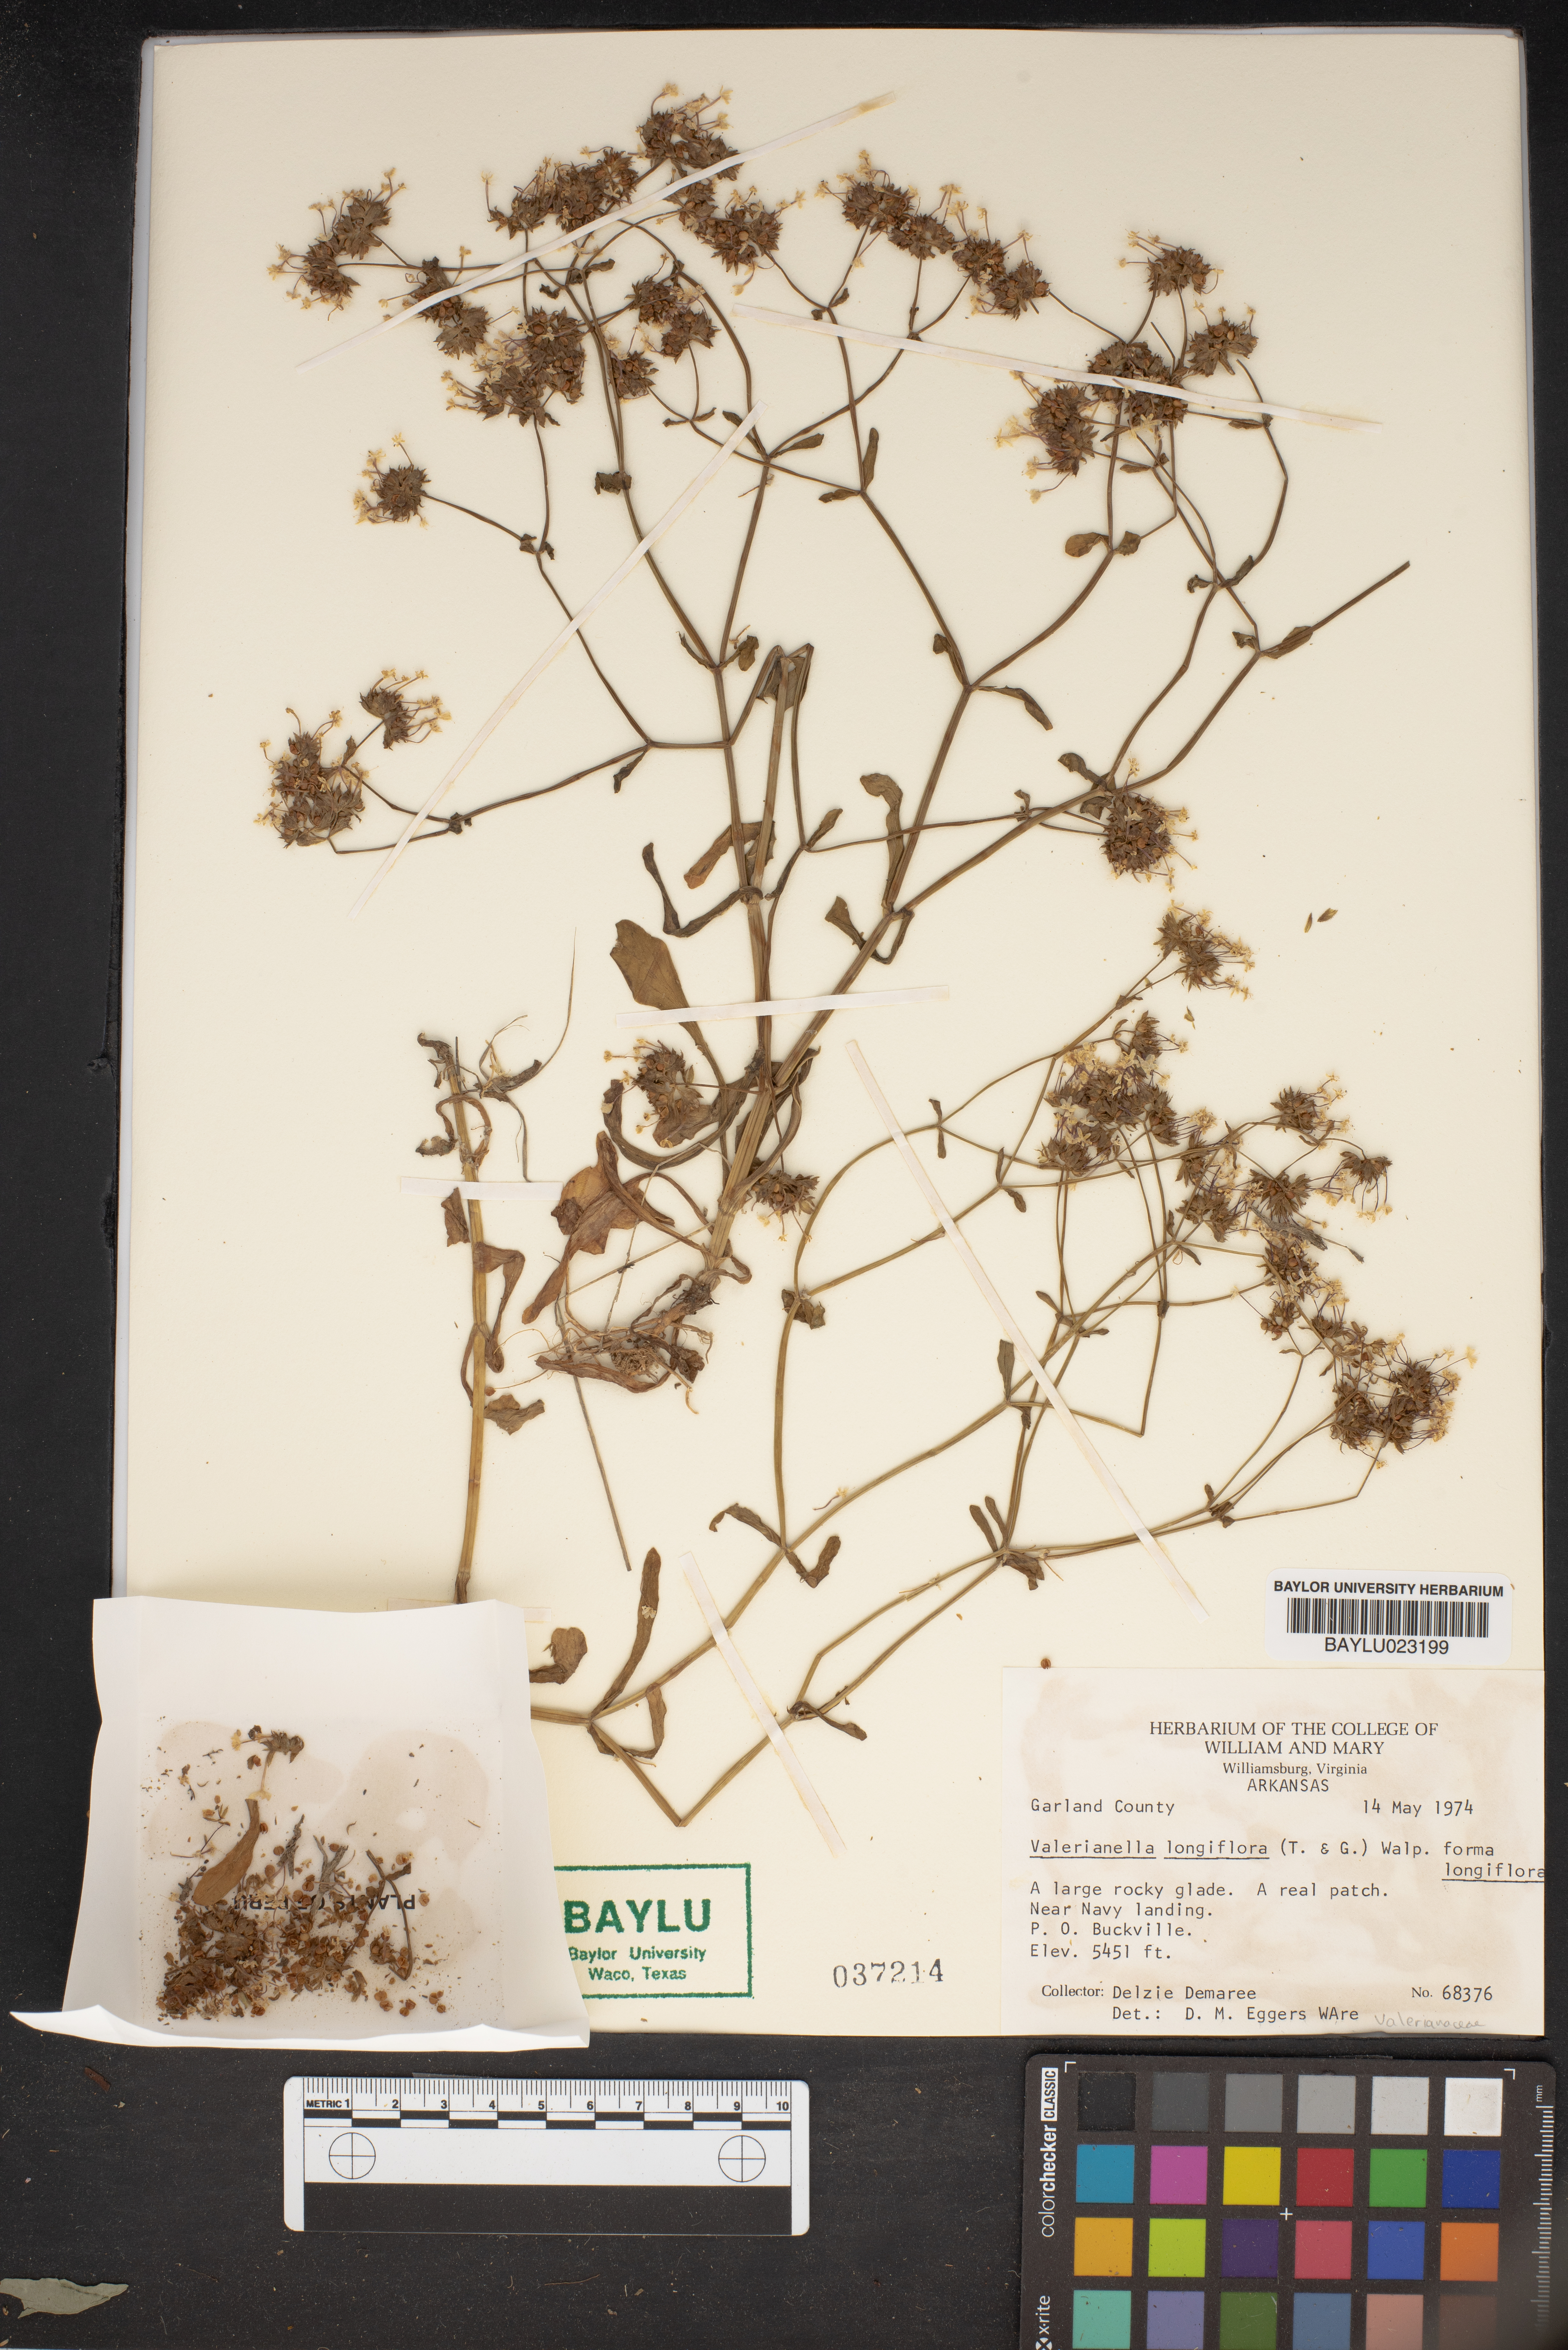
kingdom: Plantae
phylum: Tracheophyta
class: Magnoliopsida
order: Dipsacales
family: Caprifoliaceae
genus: Plectritis
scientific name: Plectritis longiflora
